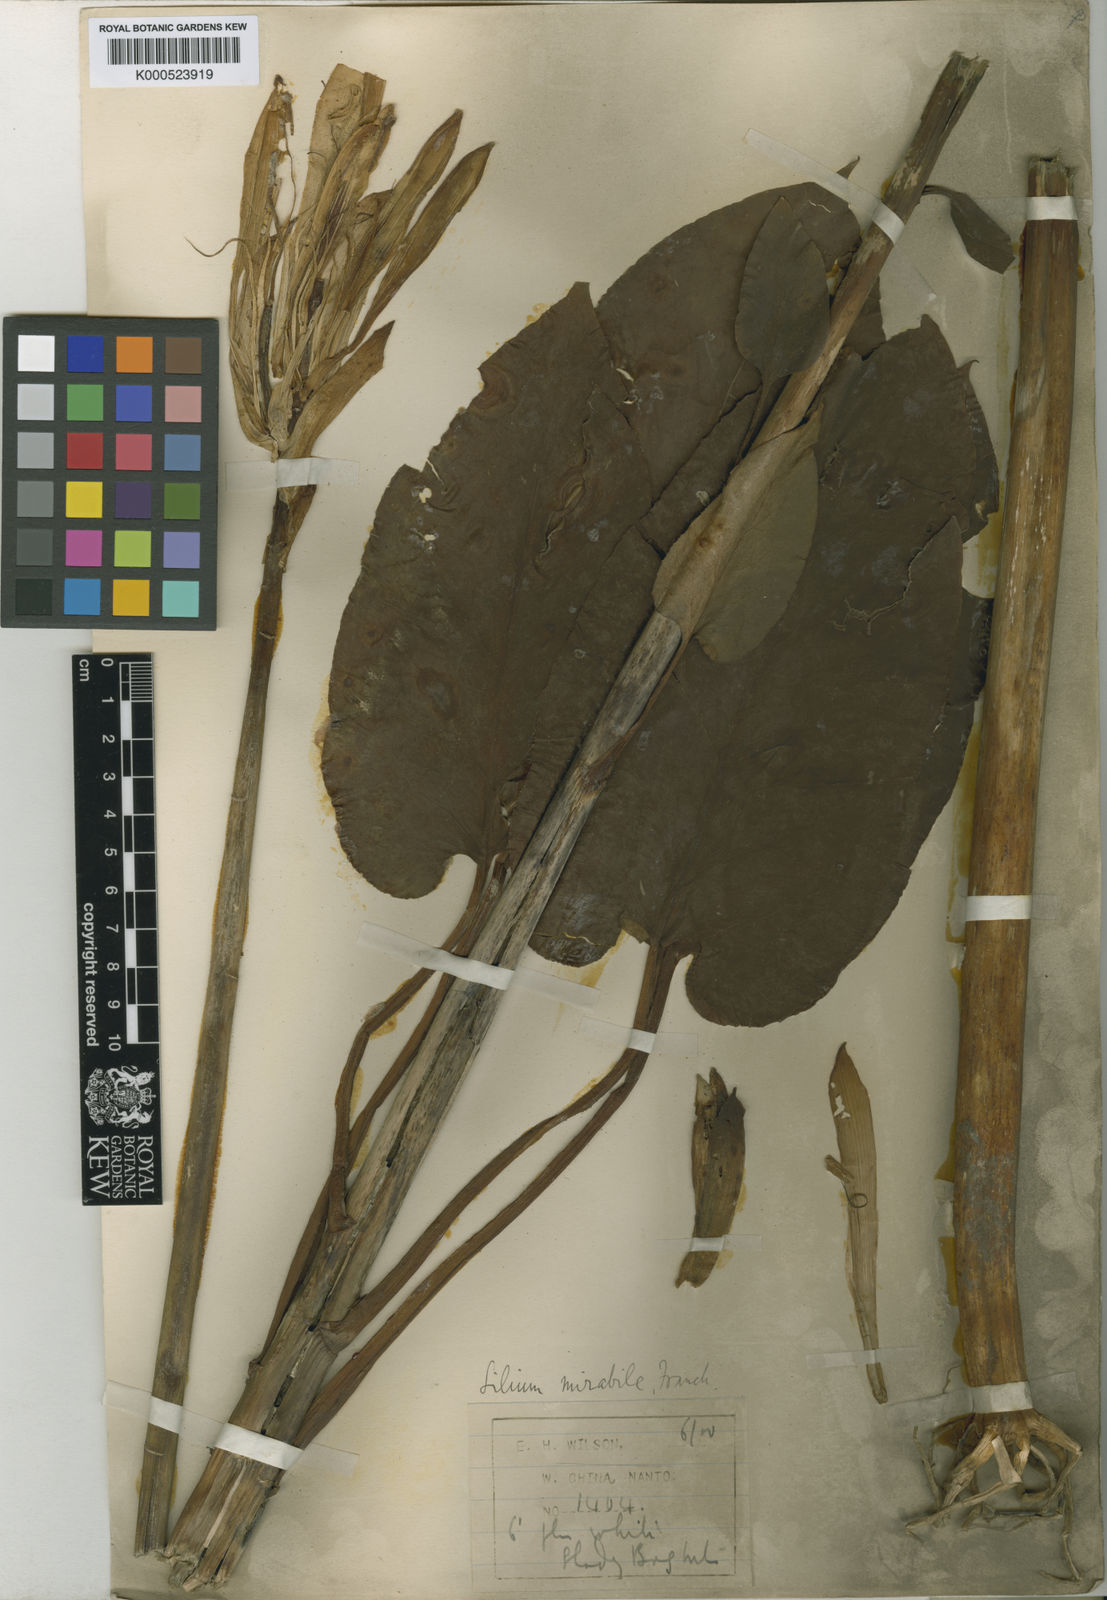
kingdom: Plantae
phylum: Tracheophyta
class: Liliopsida
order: Liliales
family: Liliaceae
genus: Cardiocrinum
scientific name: Cardiocrinum cathayanum
